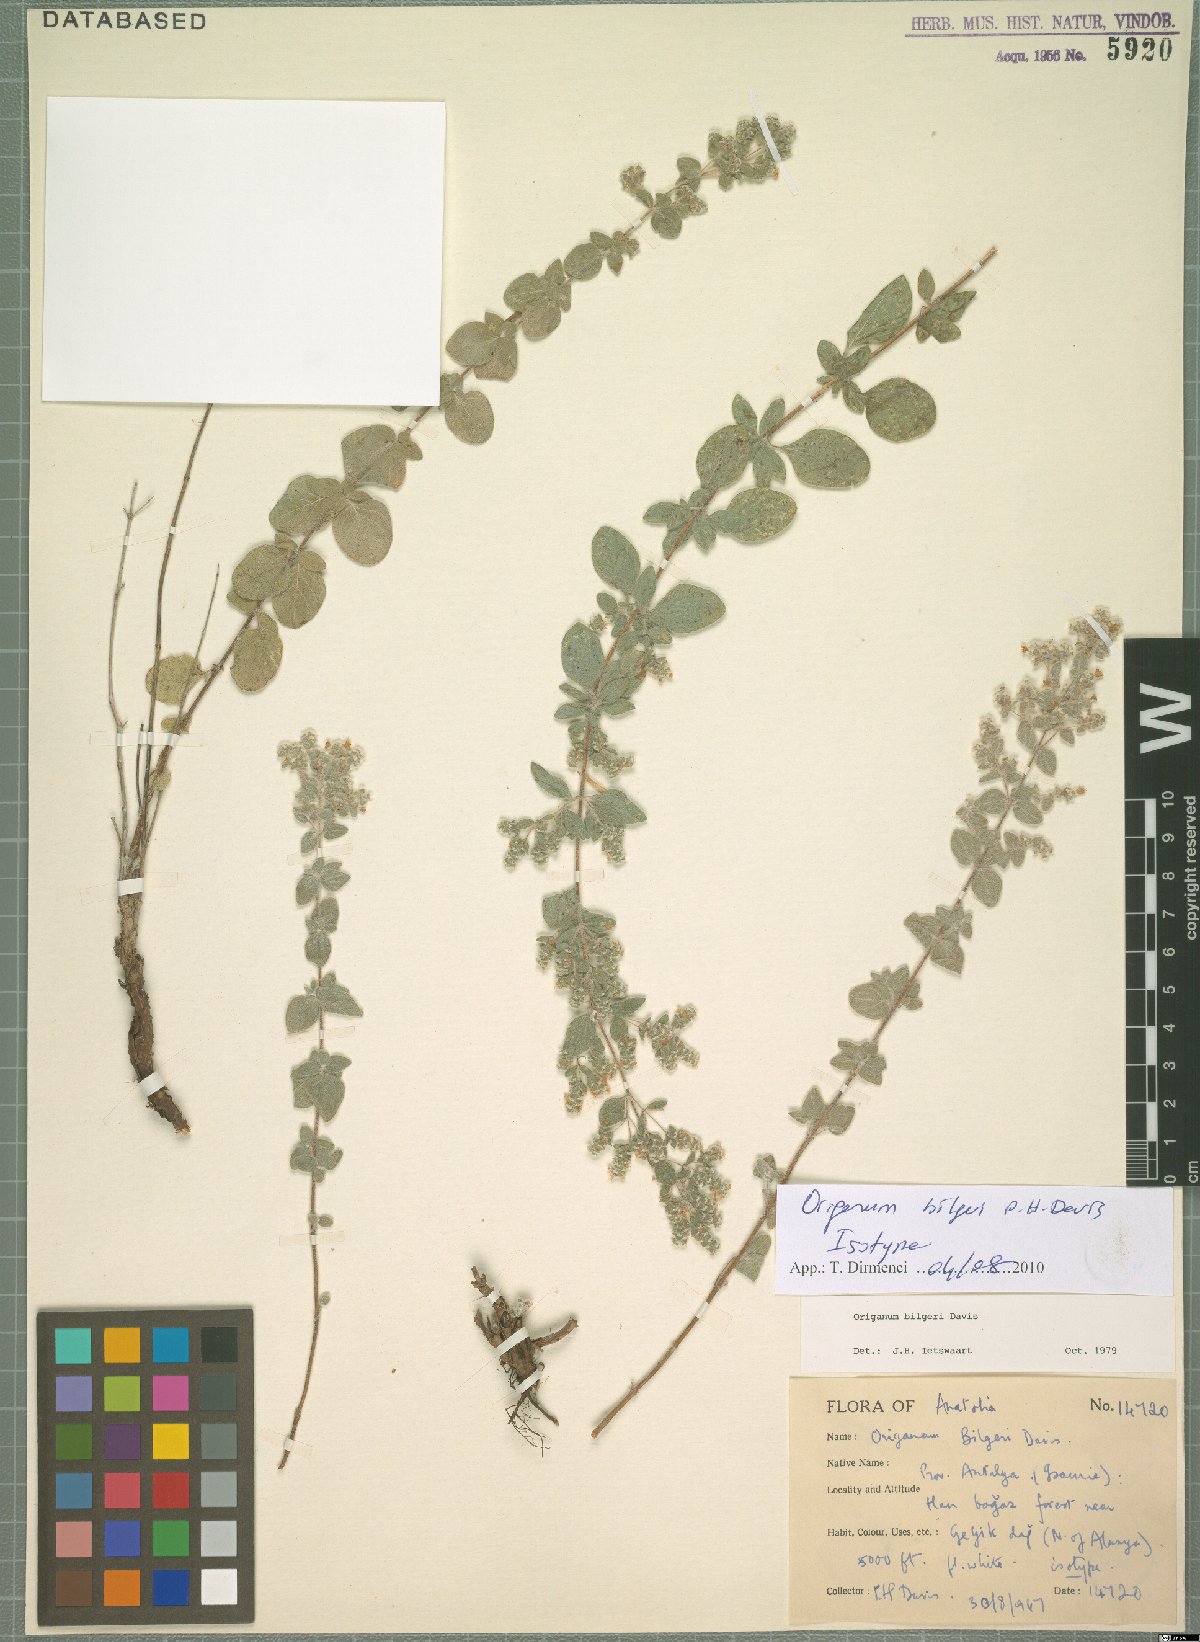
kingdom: Plantae
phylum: Tracheophyta
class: Magnoliopsida
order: Lamiales
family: Lamiaceae
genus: Origanum
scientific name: Origanum bilgeri
